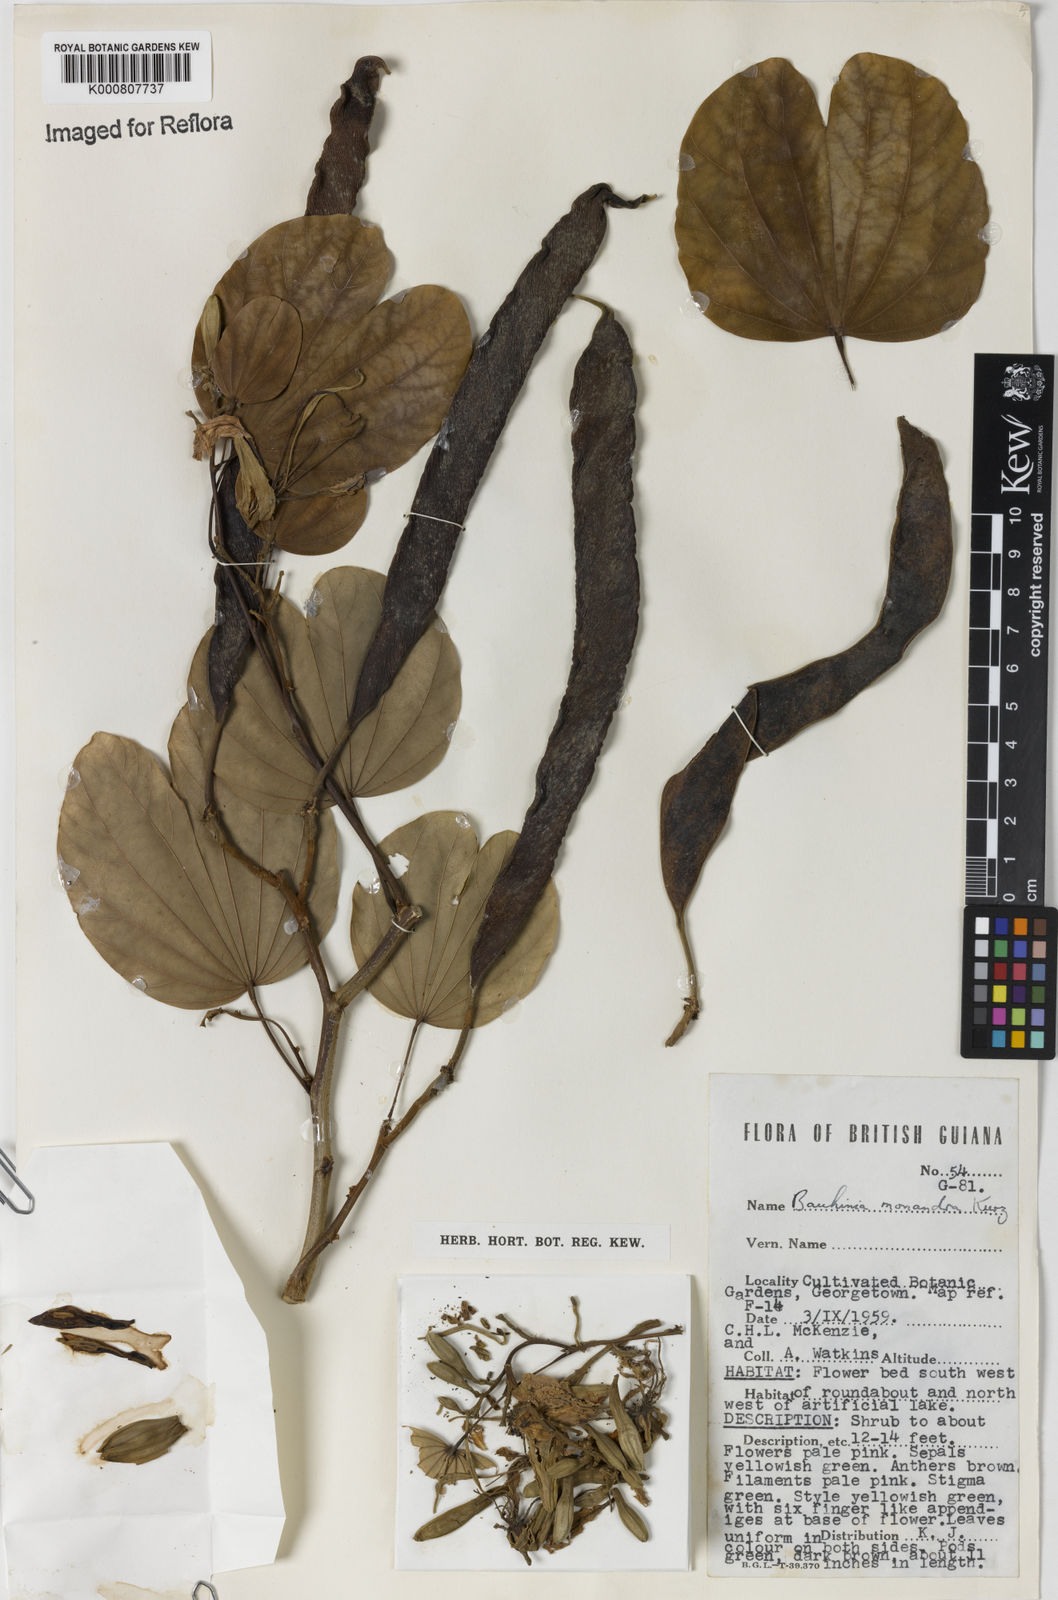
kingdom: Plantae
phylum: Tracheophyta
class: Magnoliopsida
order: Fabales
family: Fabaceae
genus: Bauhinia
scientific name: Bauhinia monandra
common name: Napoleon's plume
